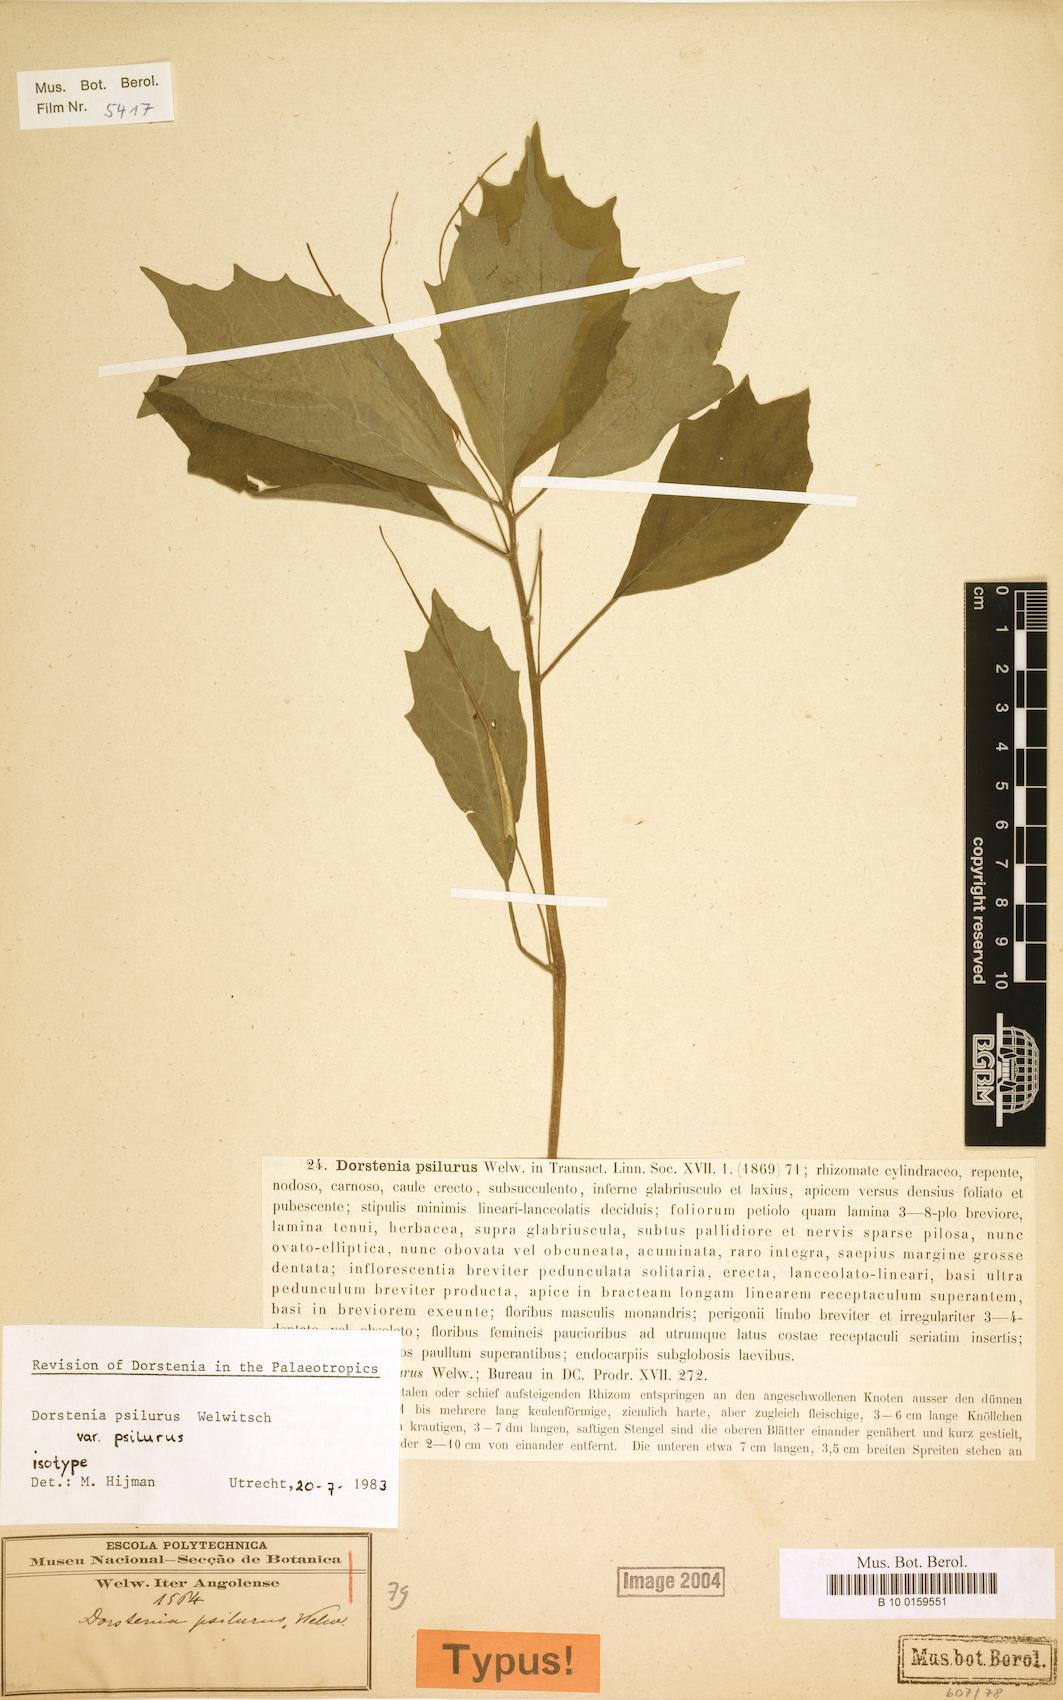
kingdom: Plantae
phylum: Tracheophyta
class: Magnoliopsida
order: Rosales
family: Moraceae
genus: Dorstenia
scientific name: Dorstenia psilurus
